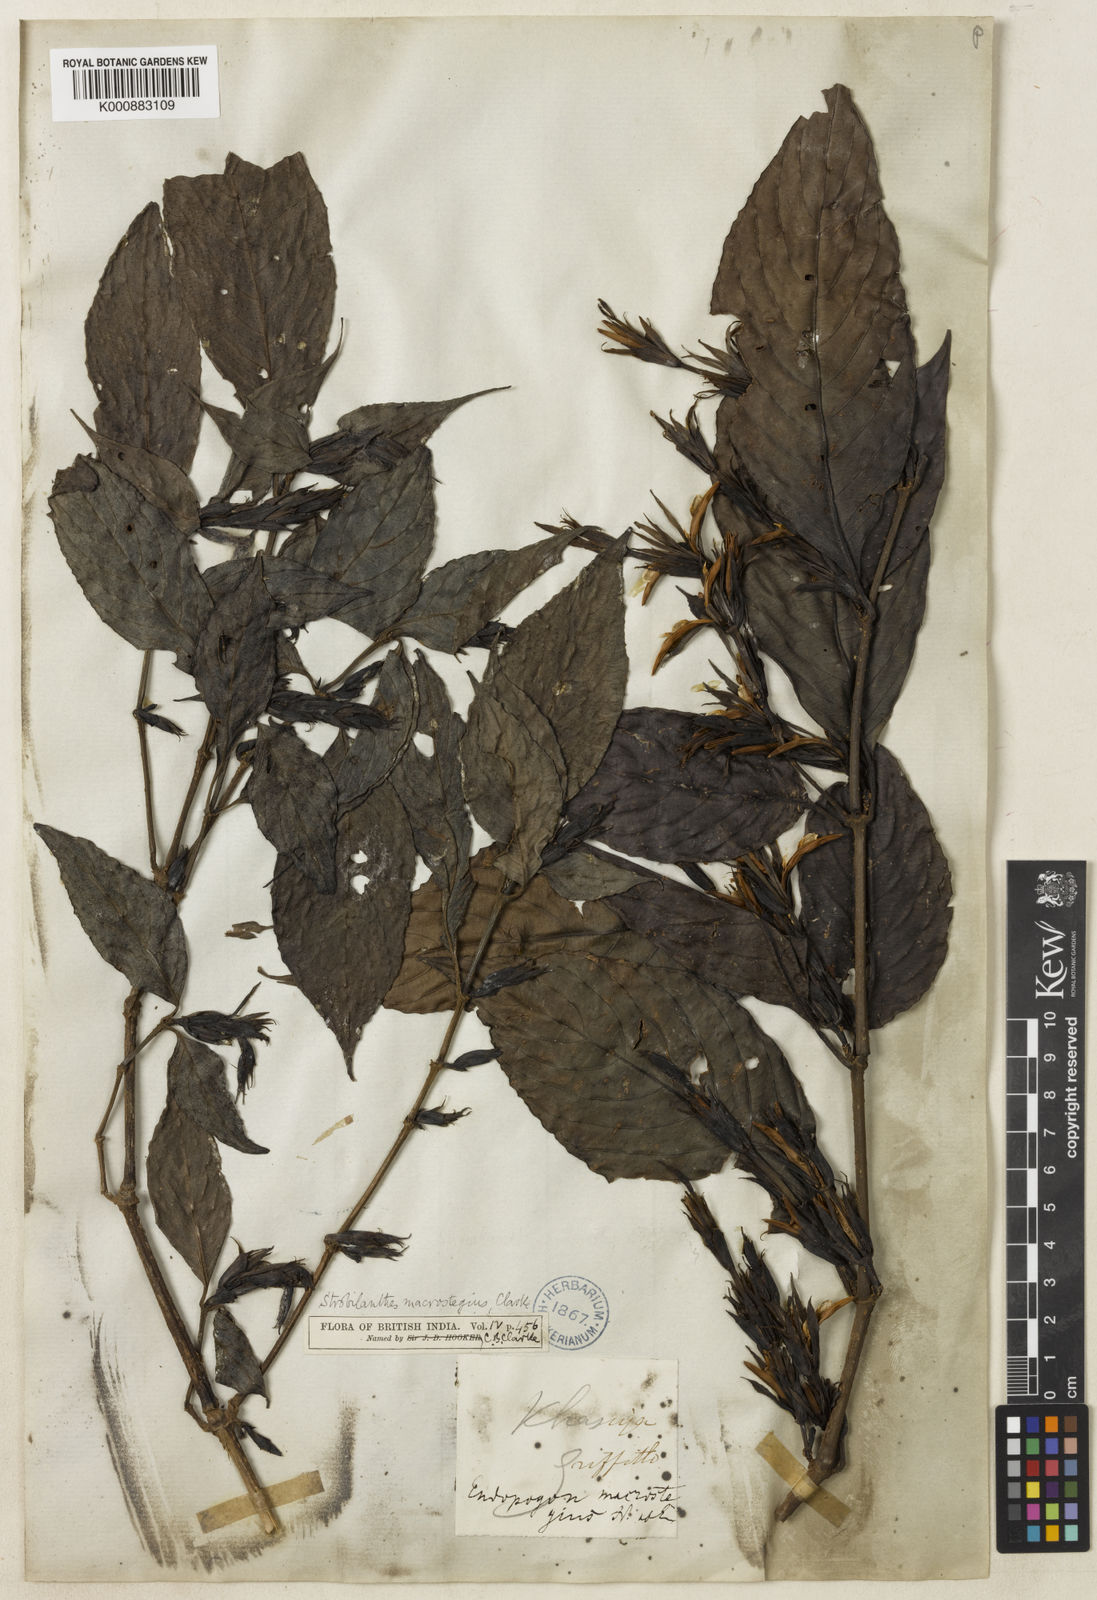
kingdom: Plantae
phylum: Tracheophyta
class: Magnoliopsida
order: Lamiales
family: Acanthaceae
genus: Strobilanthes
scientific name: Strobilanthes fimbriata
